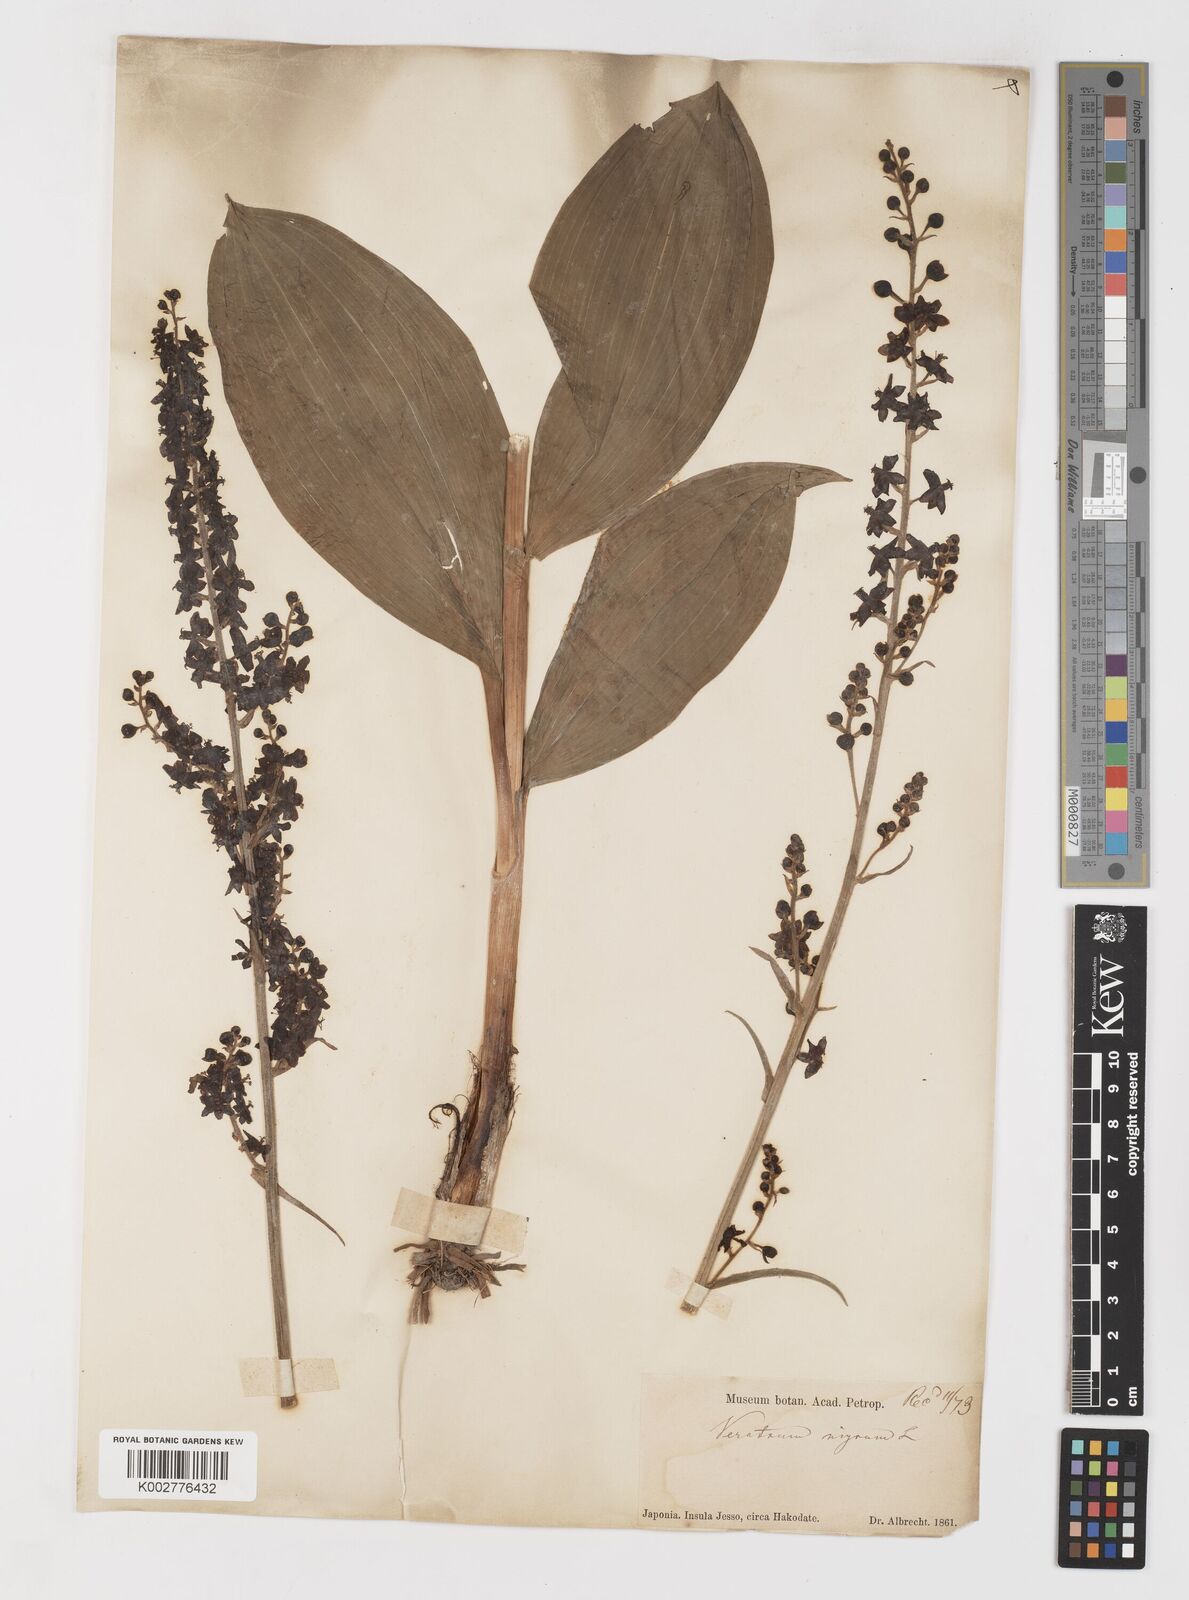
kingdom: Plantae
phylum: Tracheophyta
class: Liliopsida
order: Liliales
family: Melanthiaceae
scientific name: Melanthiaceae
